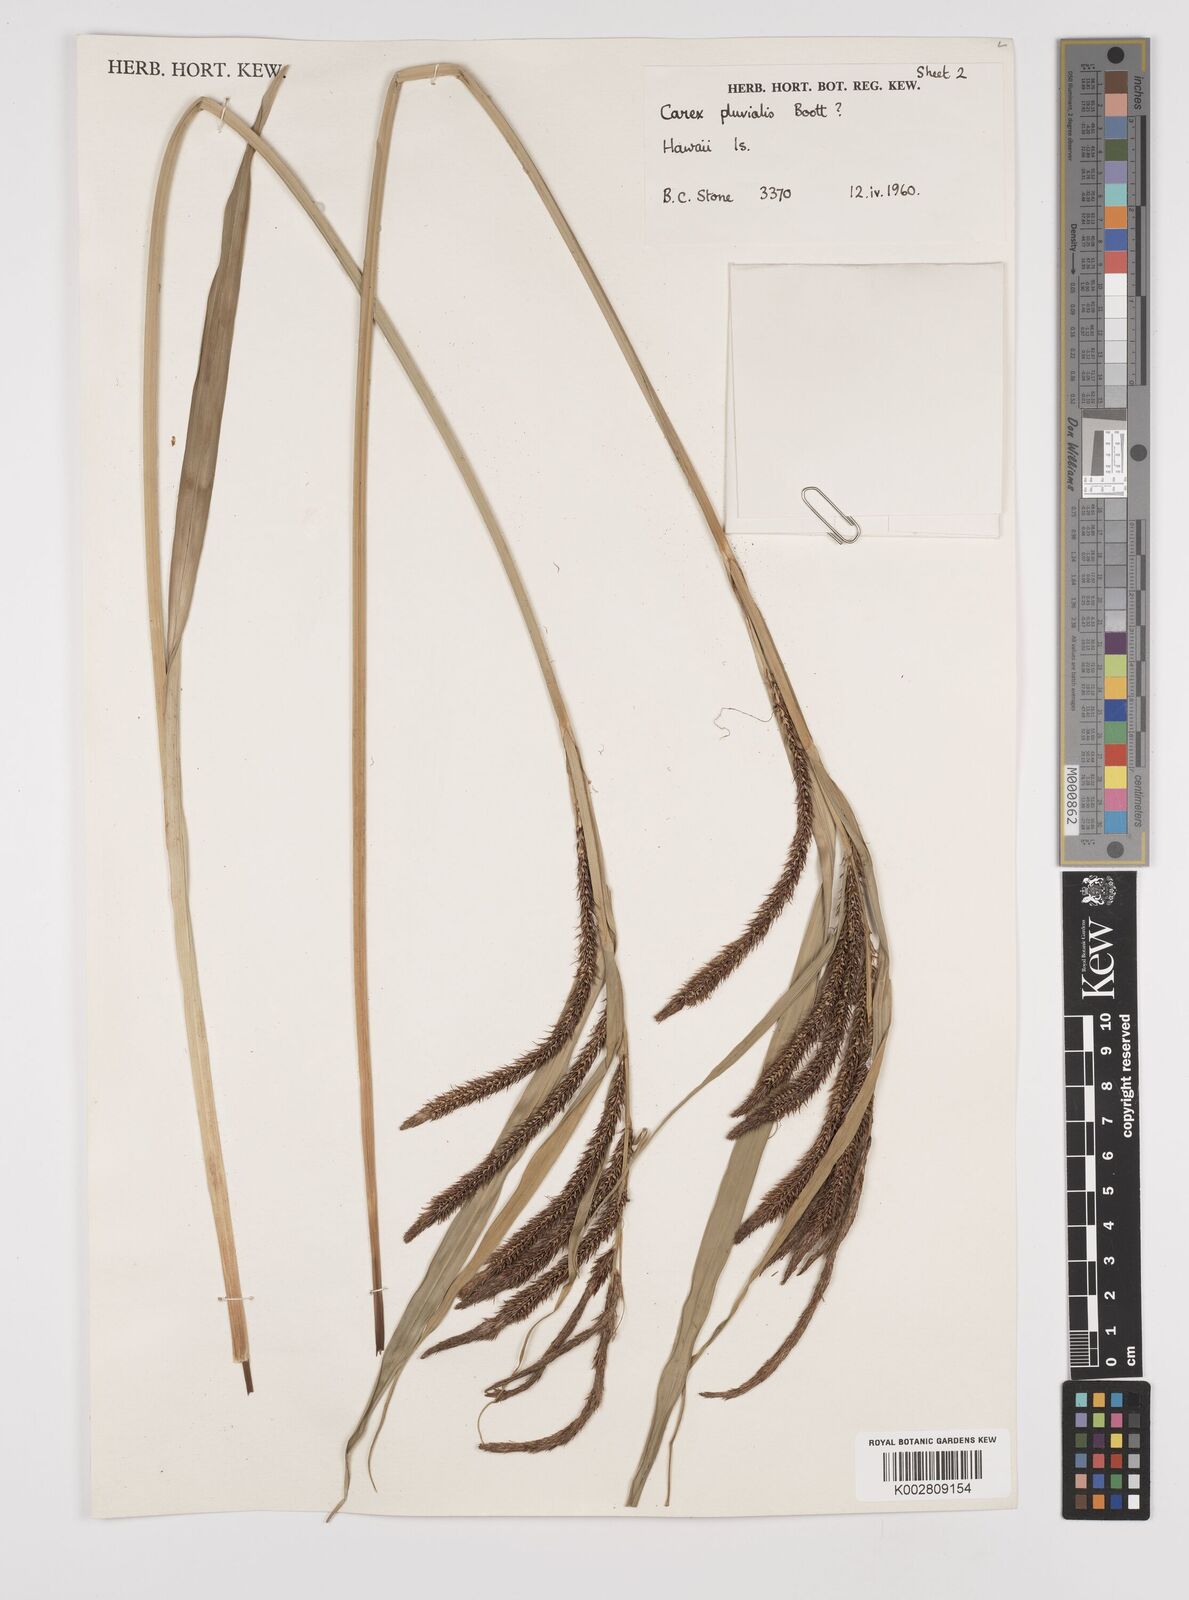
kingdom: Plantae
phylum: Tracheophyta
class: Liliopsida
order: Poales
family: Cyperaceae
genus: Carex
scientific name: Carex alligata
